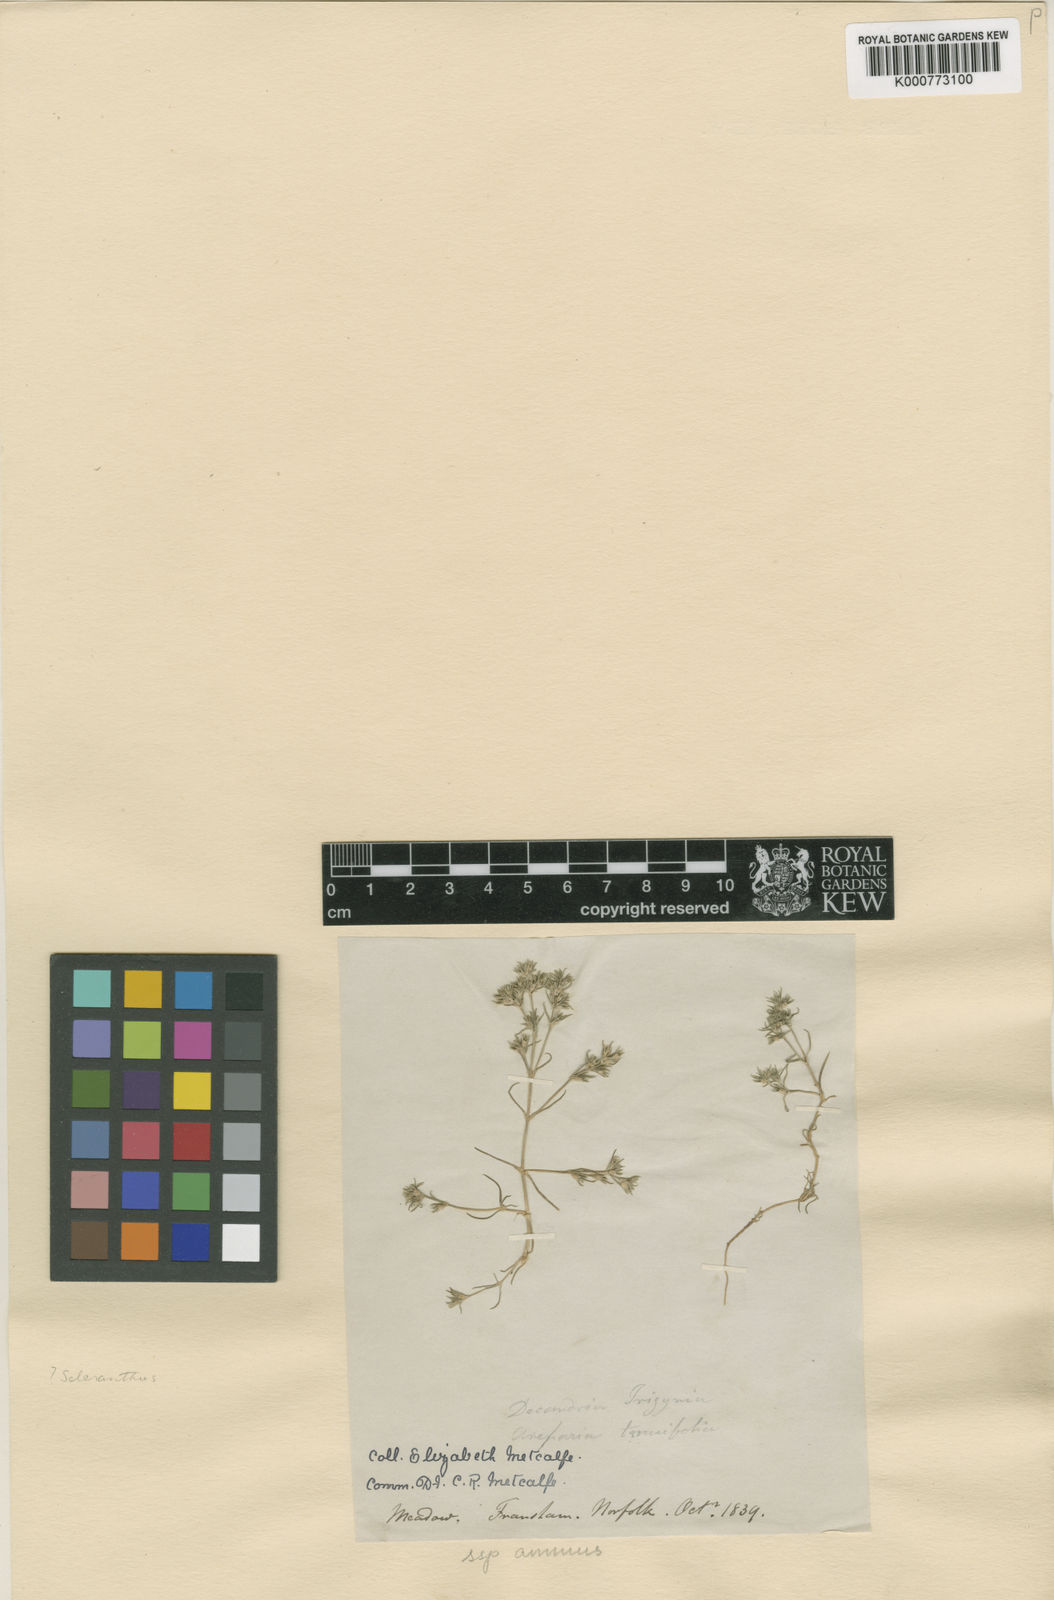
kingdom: Plantae
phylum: Tracheophyta
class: Magnoliopsida
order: Caryophyllales
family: Caryophyllaceae
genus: Scleranthus
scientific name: Scleranthus annuus
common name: Annual knawel
